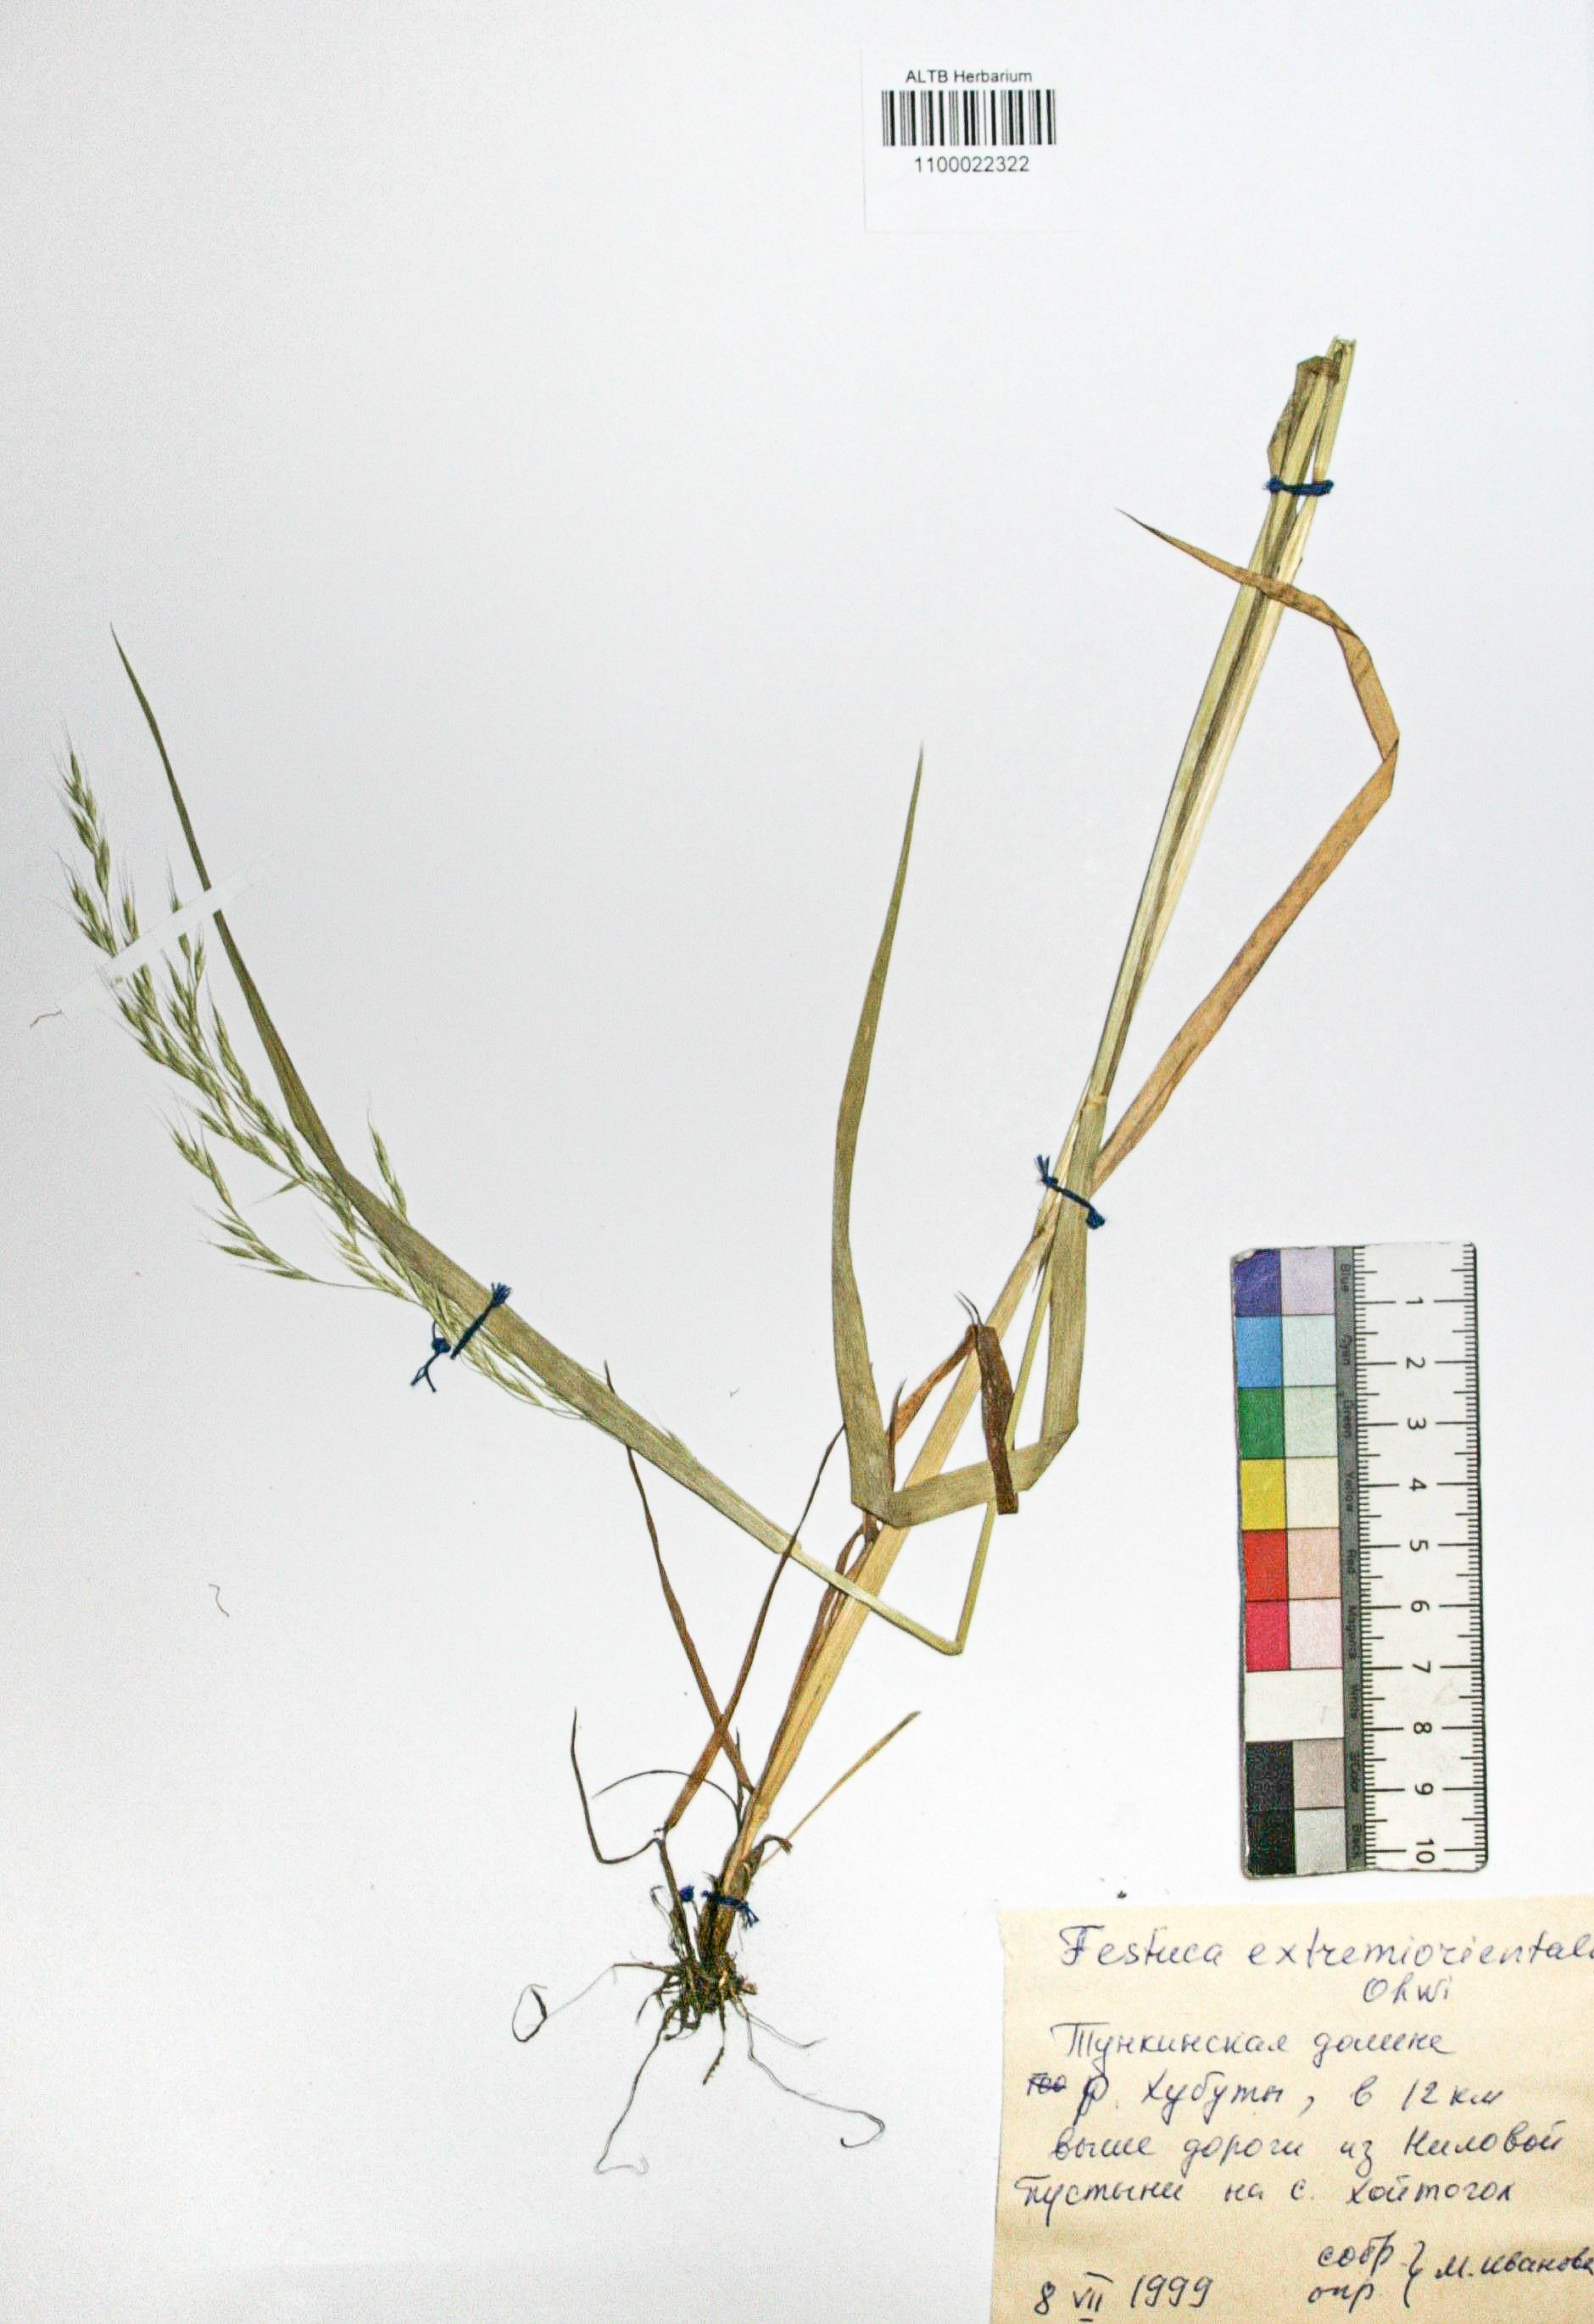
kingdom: Plantae
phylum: Tracheophyta
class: Liliopsida
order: Poales
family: Poaceae
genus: Festuca
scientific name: Festuca extremiorientalis
